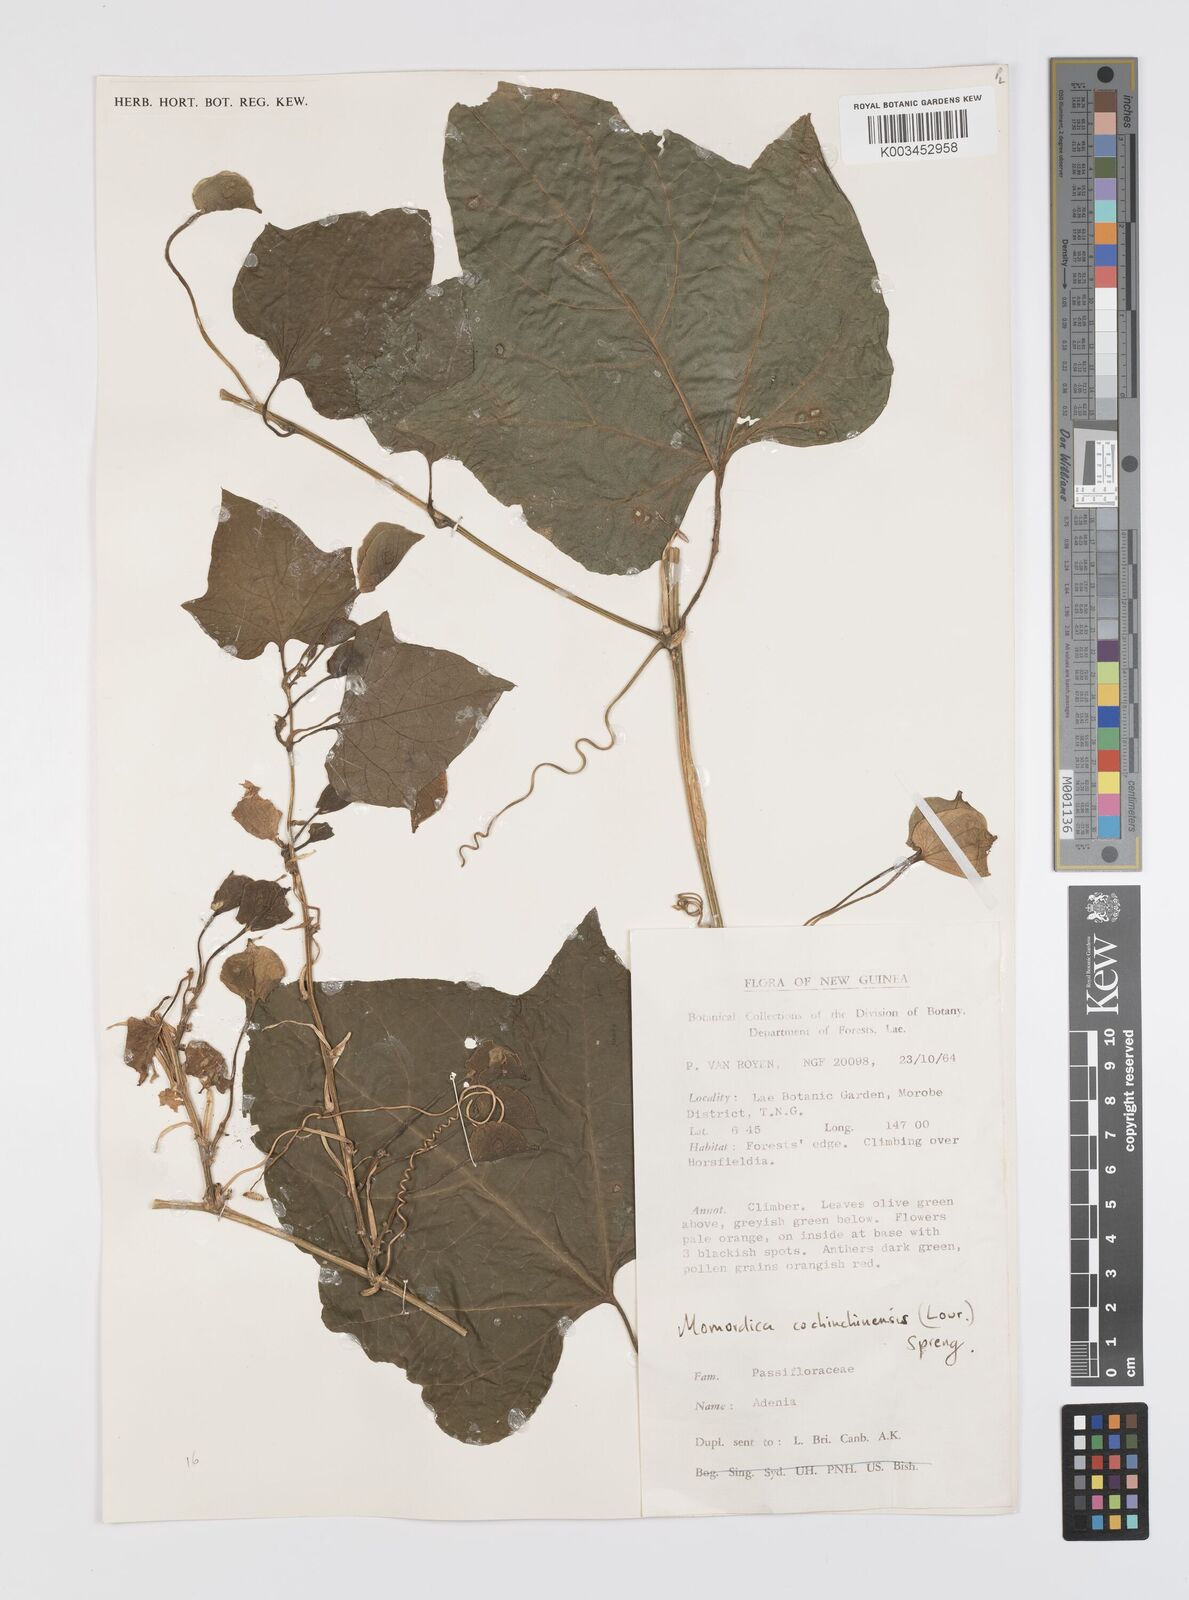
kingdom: Plantae
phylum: Tracheophyta
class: Magnoliopsida
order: Cucurbitales
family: Cucurbitaceae
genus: Momordica
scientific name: Momordica cochinchinensis
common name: Chinese bitter-cucumber
